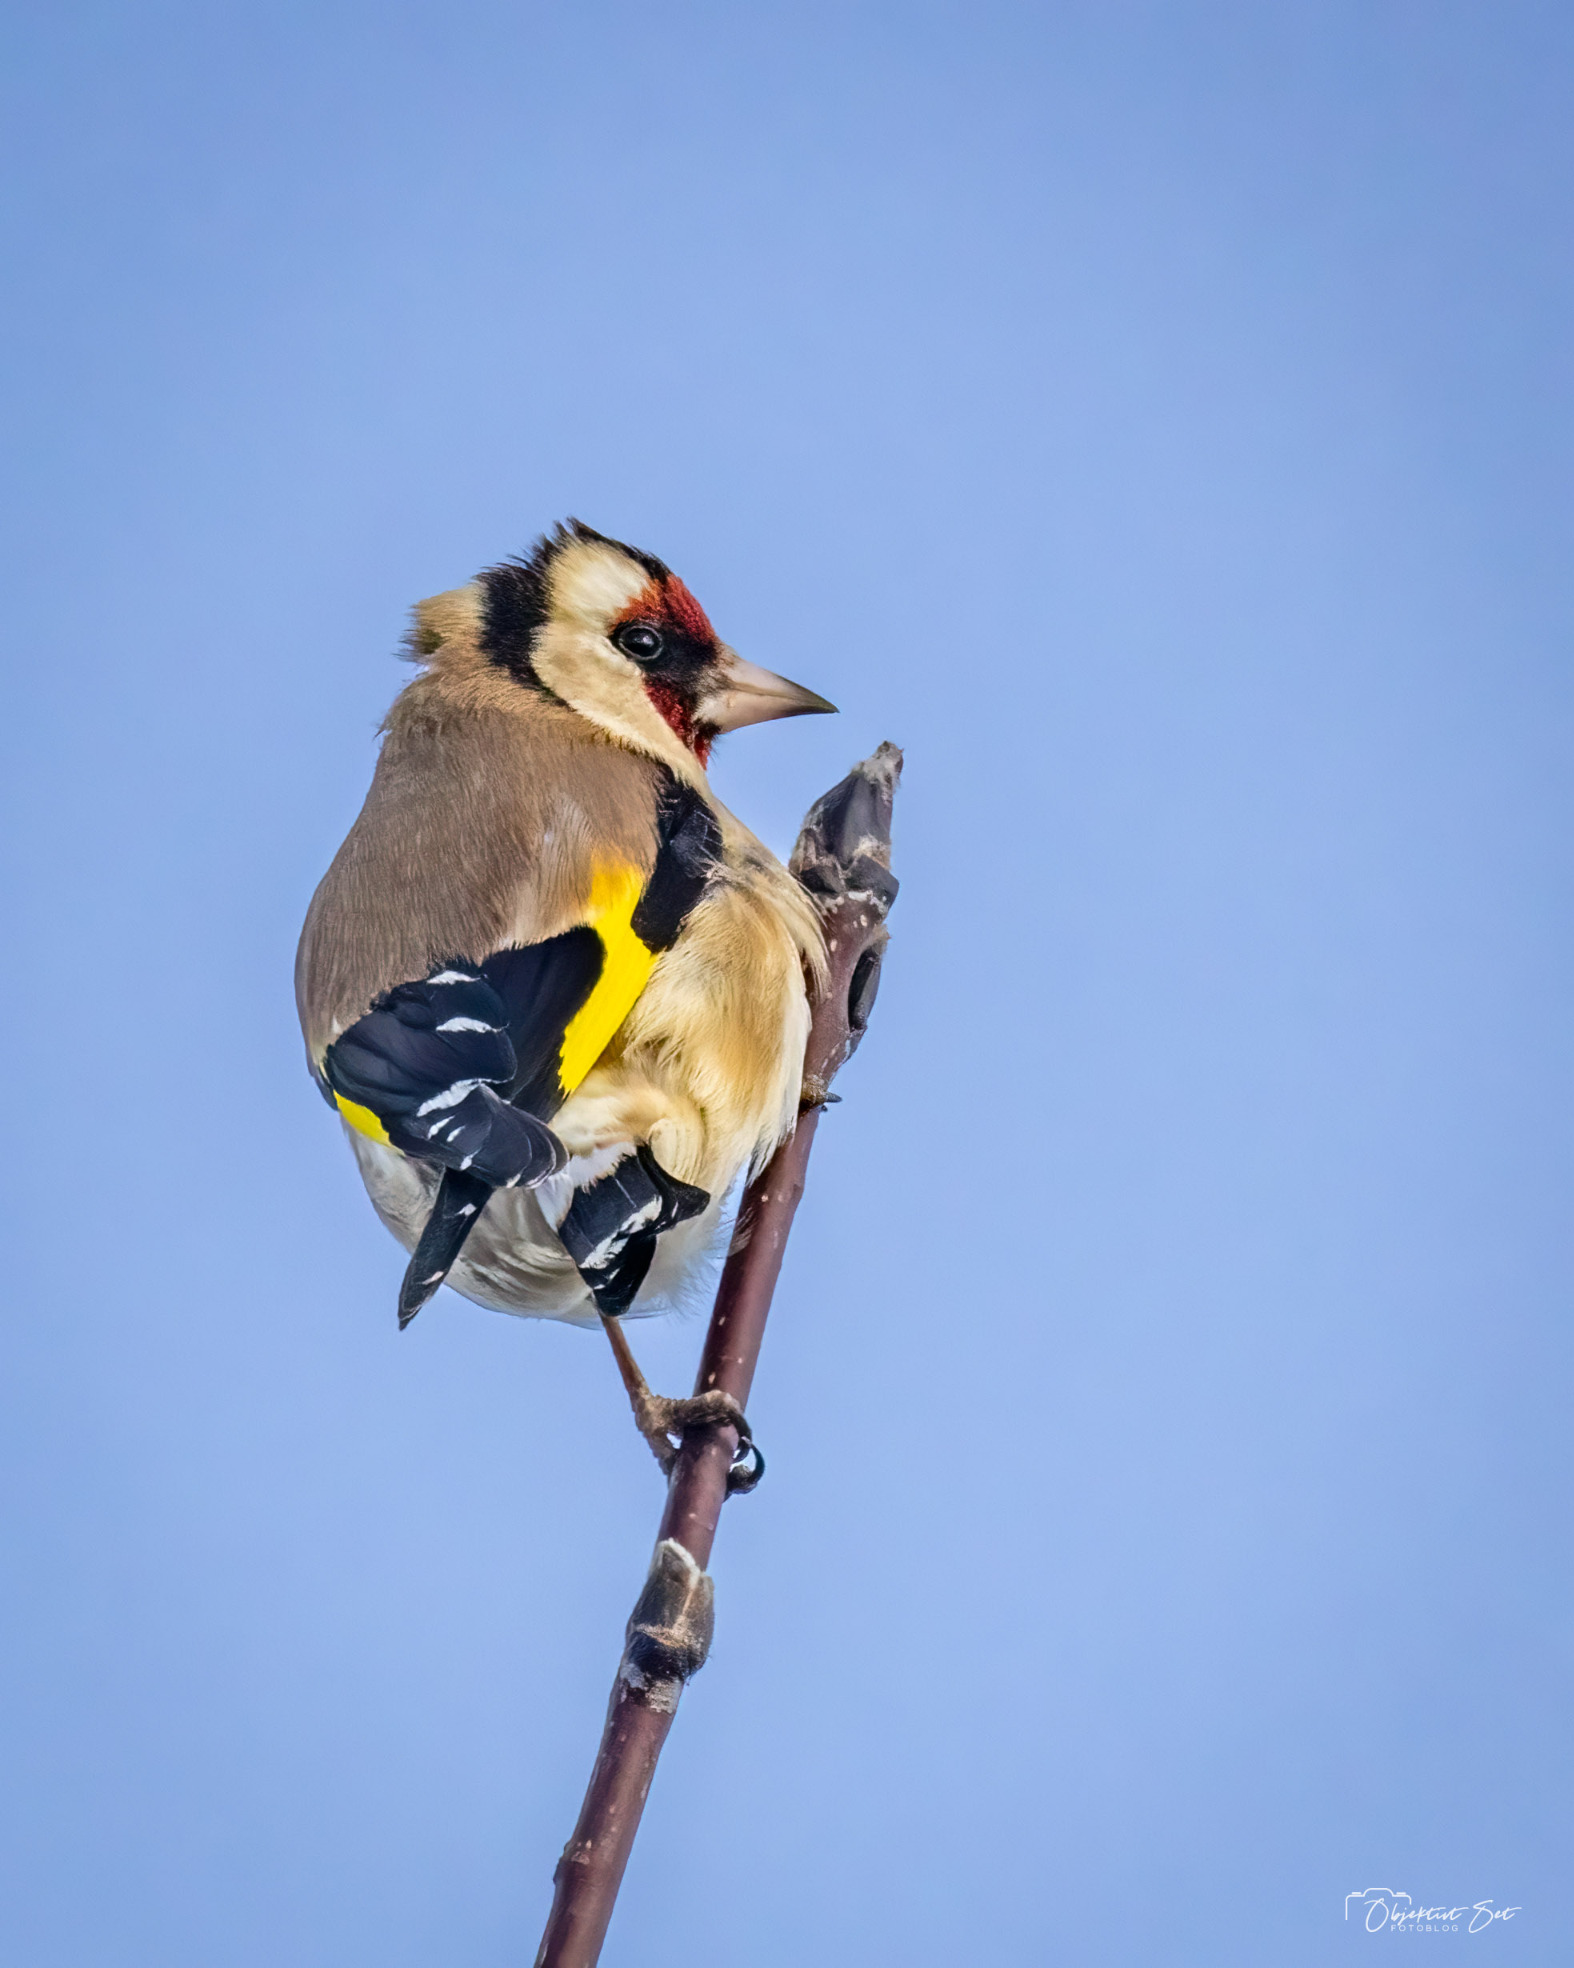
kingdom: Animalia
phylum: Chordata
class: Aves
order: Passeriformes
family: Fringillidae
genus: Carduelis
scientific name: Carduelis carduelis
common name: Stillits
